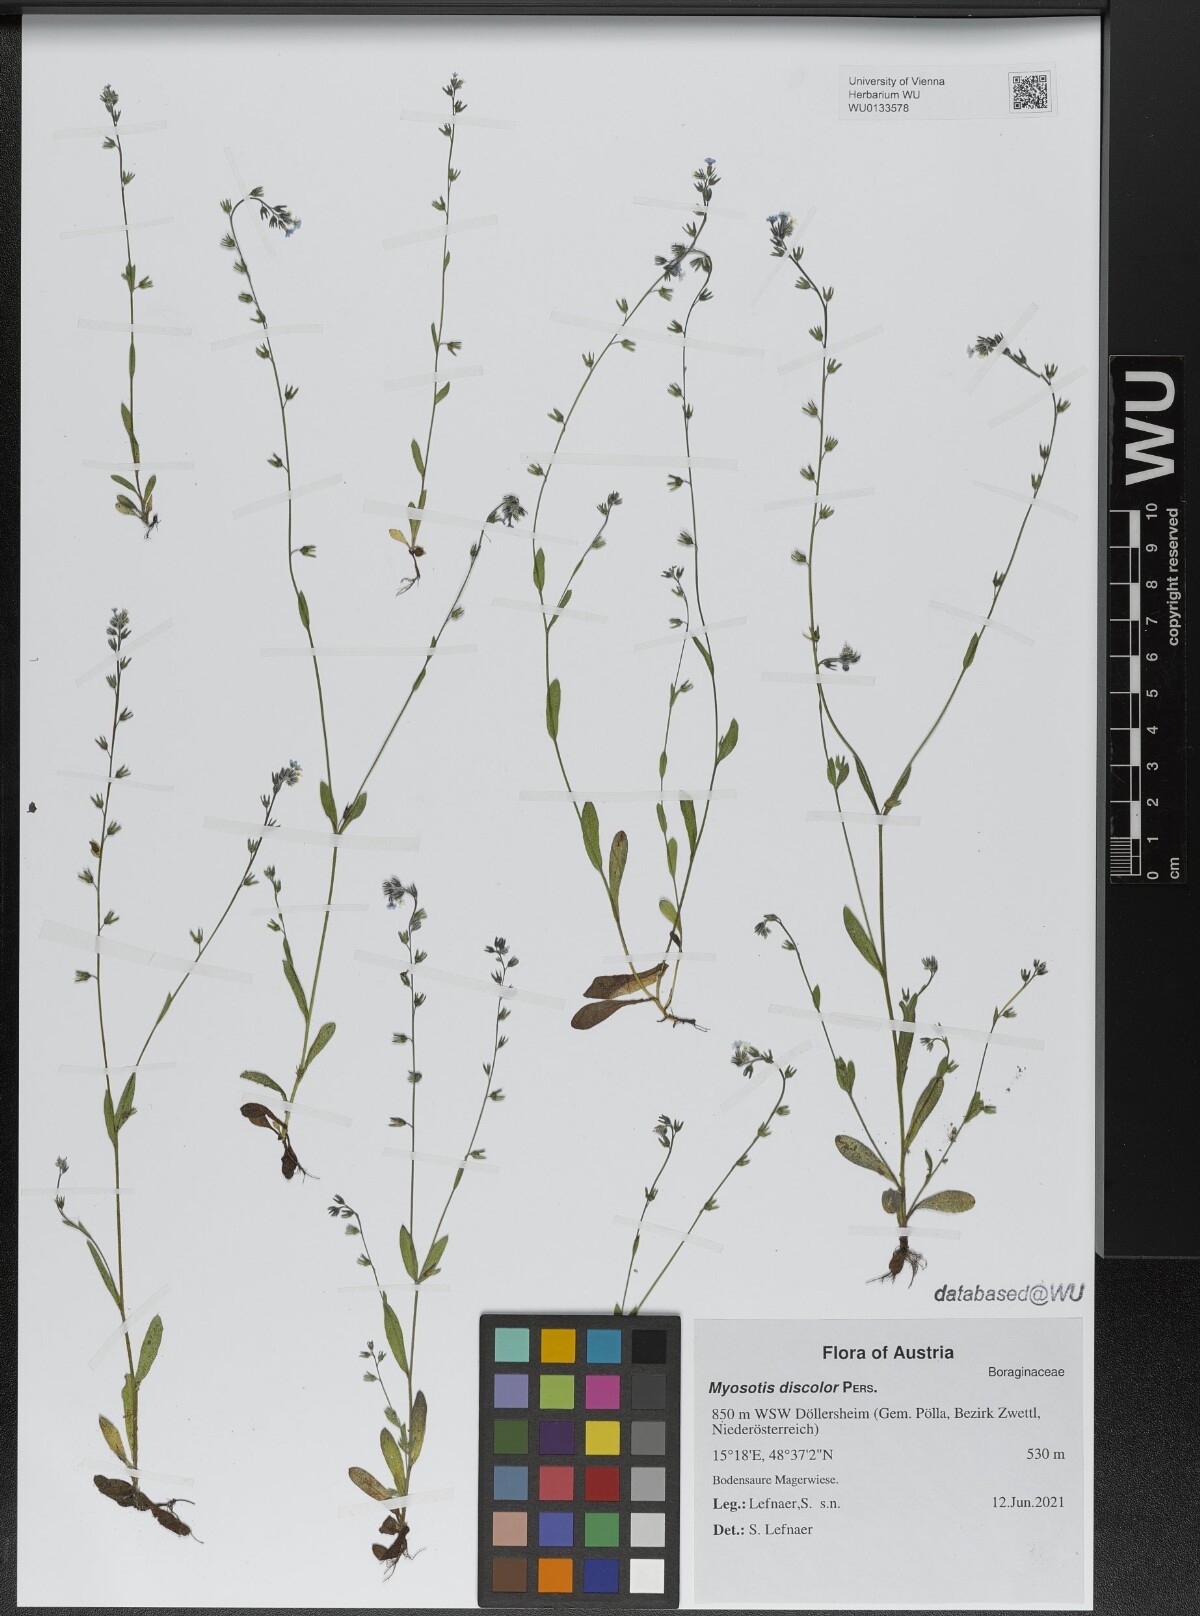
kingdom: Plantae
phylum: Tracheophyta
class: Magnoliopsida
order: Boraginales
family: Boraginaceae
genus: Myosotis
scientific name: Myosotis discolor
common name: Changing forget-me-not
